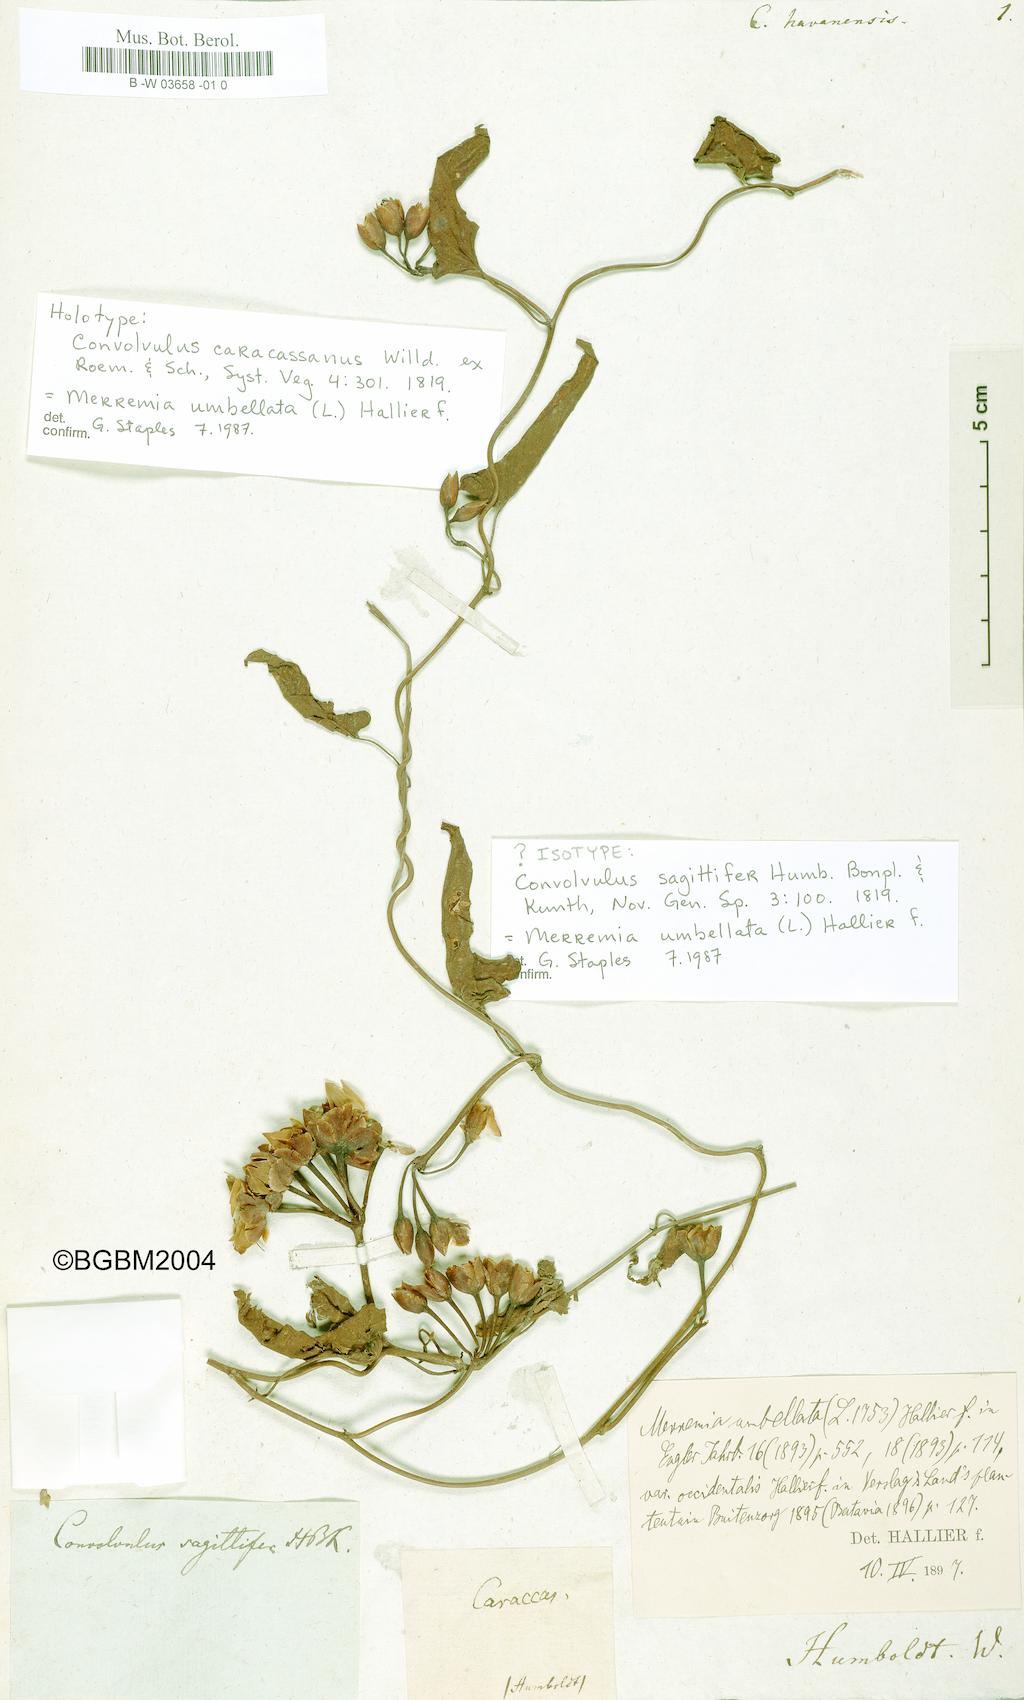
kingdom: Plantae
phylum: Tracheophyta
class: Magnoliopsida
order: Solanales
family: Convolvulaceae
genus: Jacquemontia
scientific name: Jacquemontia havanensis
